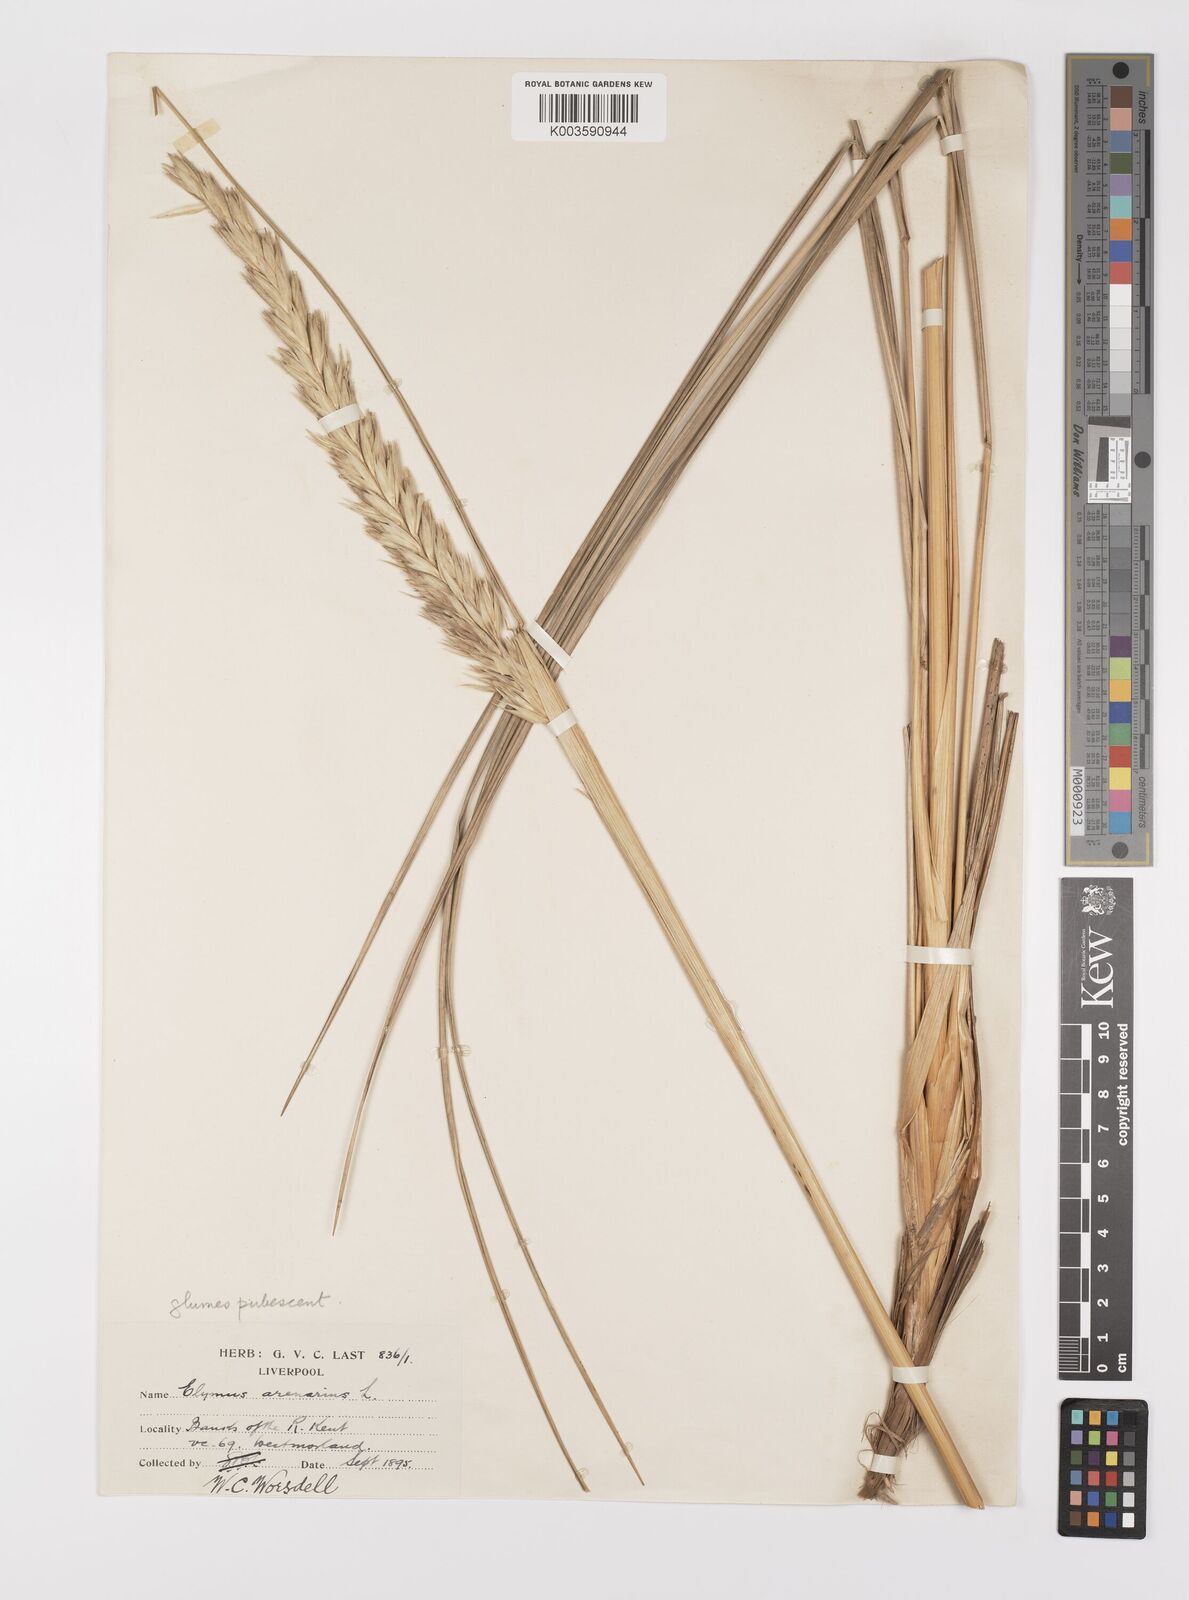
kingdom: Plantae
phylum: Tracheophyta
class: Liliopsida
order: Poales
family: Poaceae
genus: Leymus
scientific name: Leymus arenarius
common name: Lyme-grass
